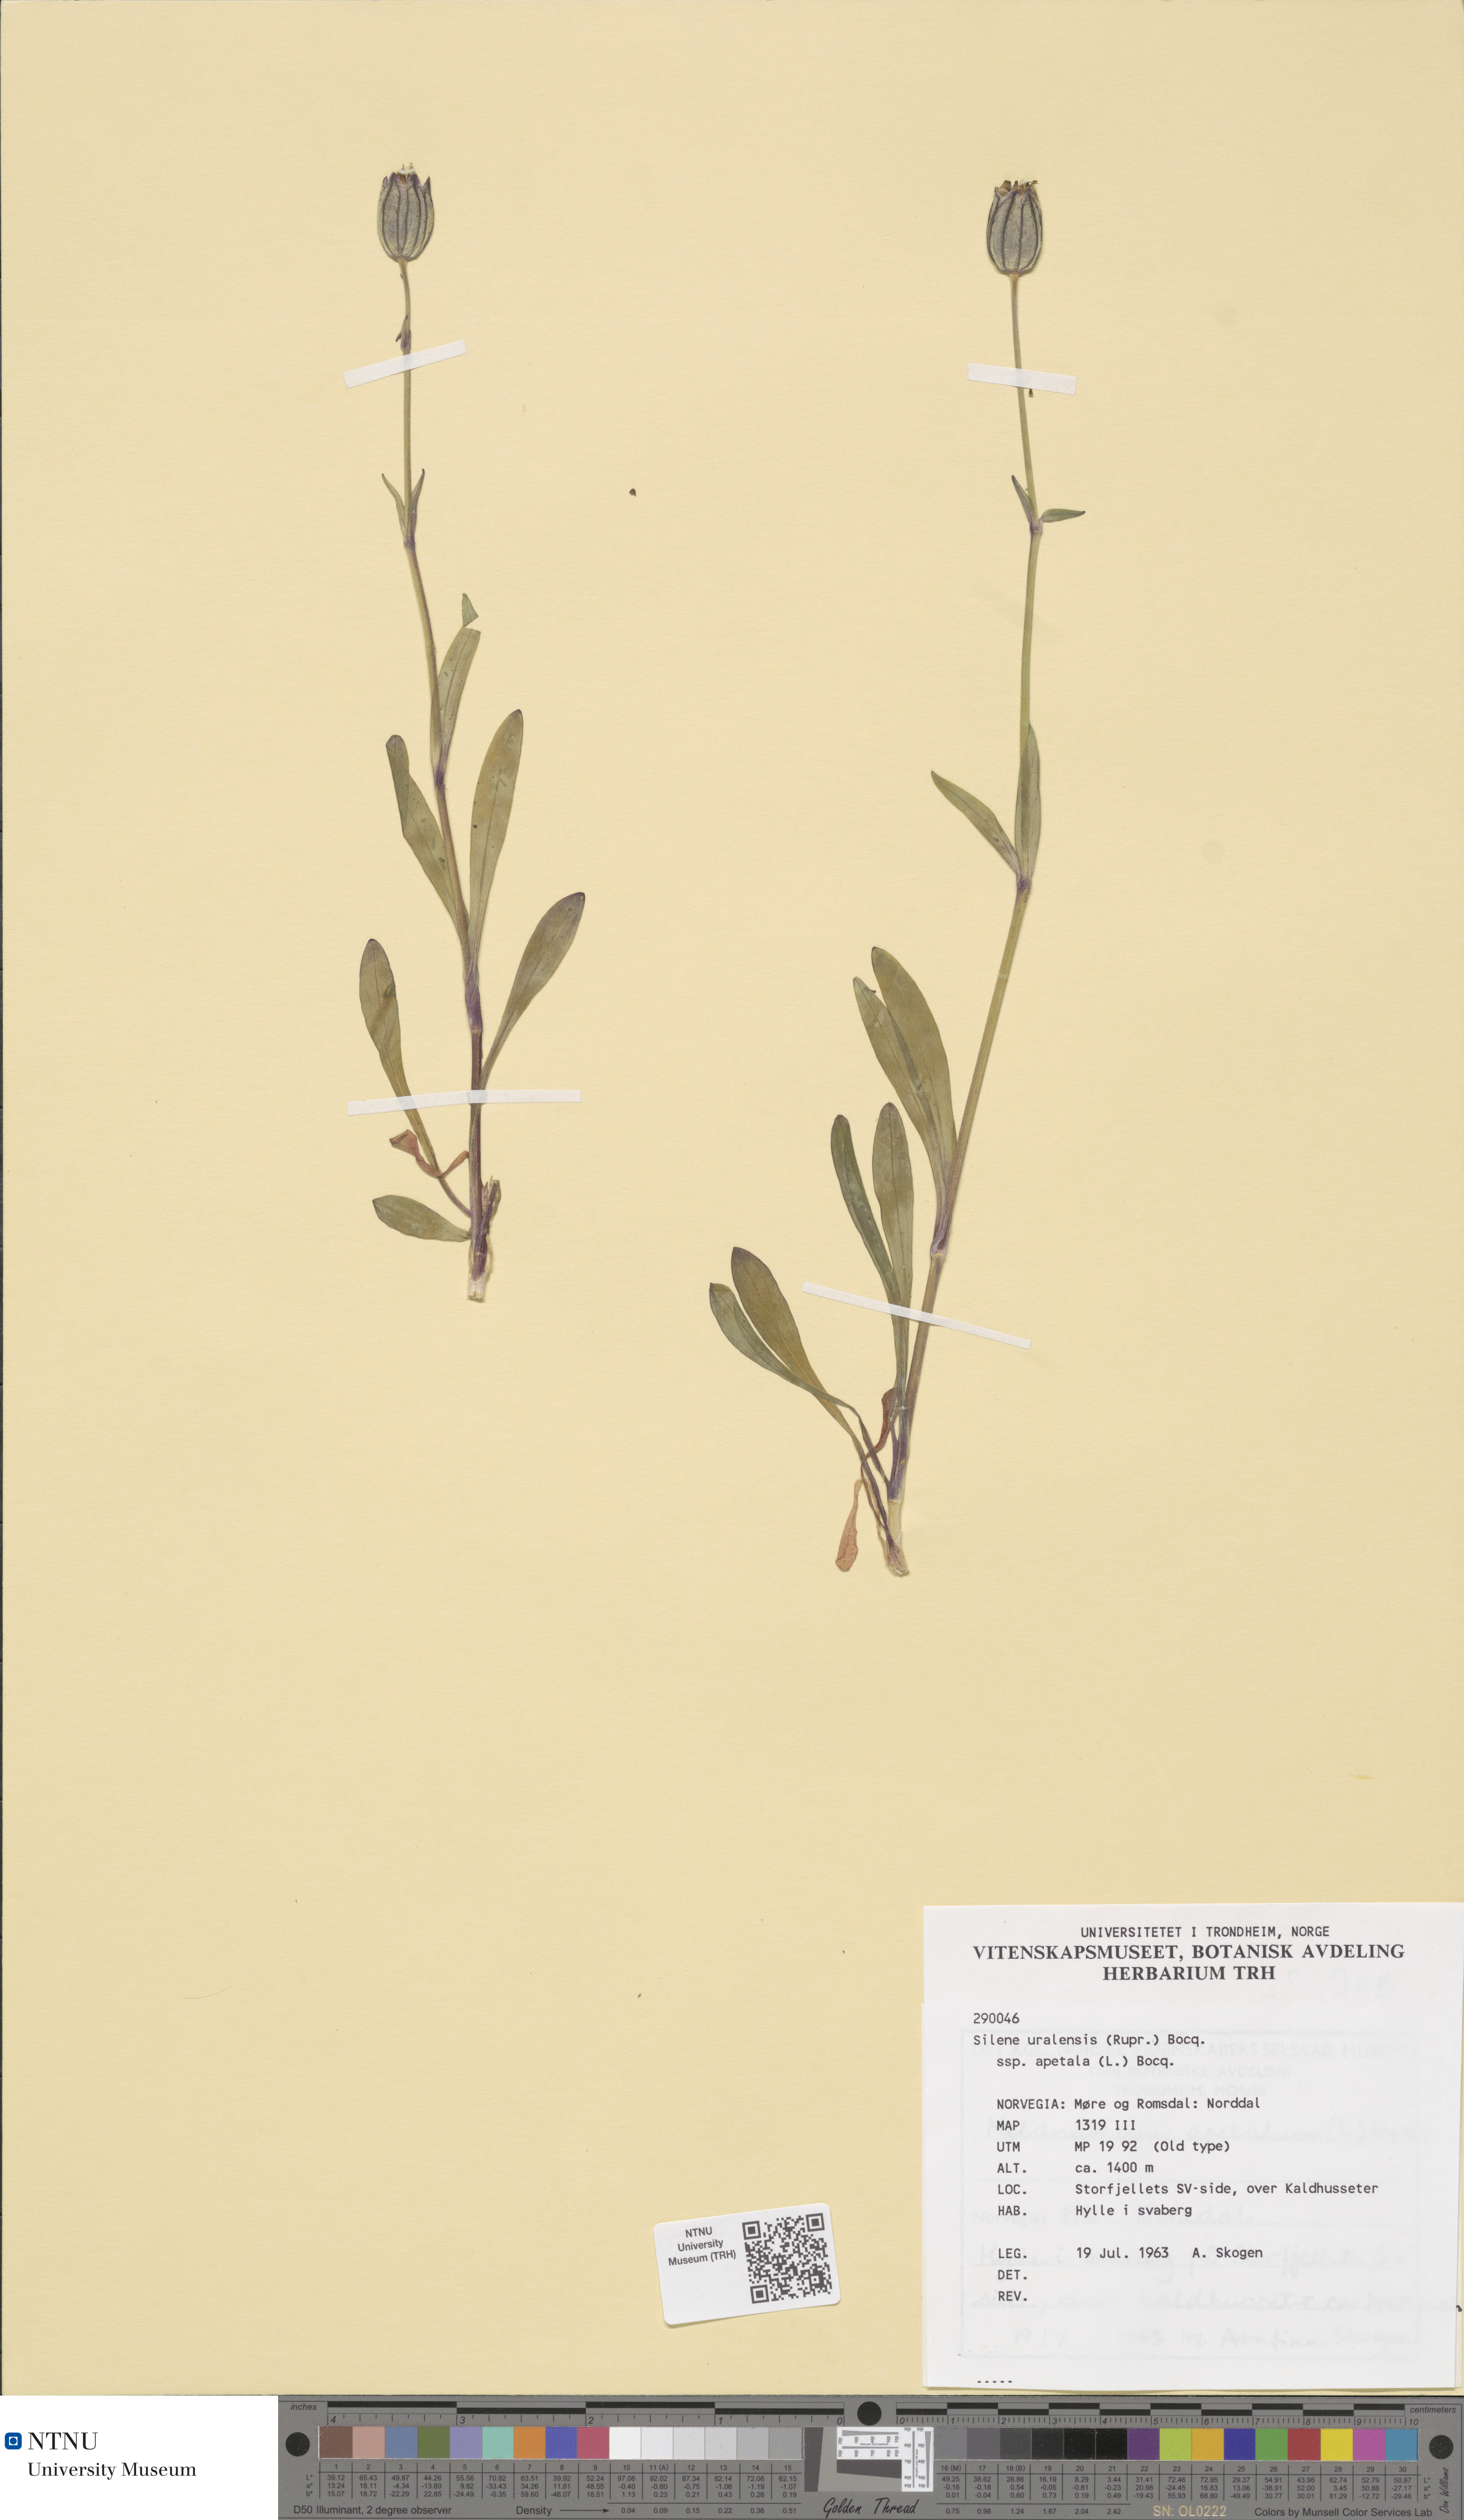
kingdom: Plantae
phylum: Tracheophyta
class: Magnoliopsida
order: Caryophyllales
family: Caryophyllaceae
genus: Silene
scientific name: Silene wahlbergella
